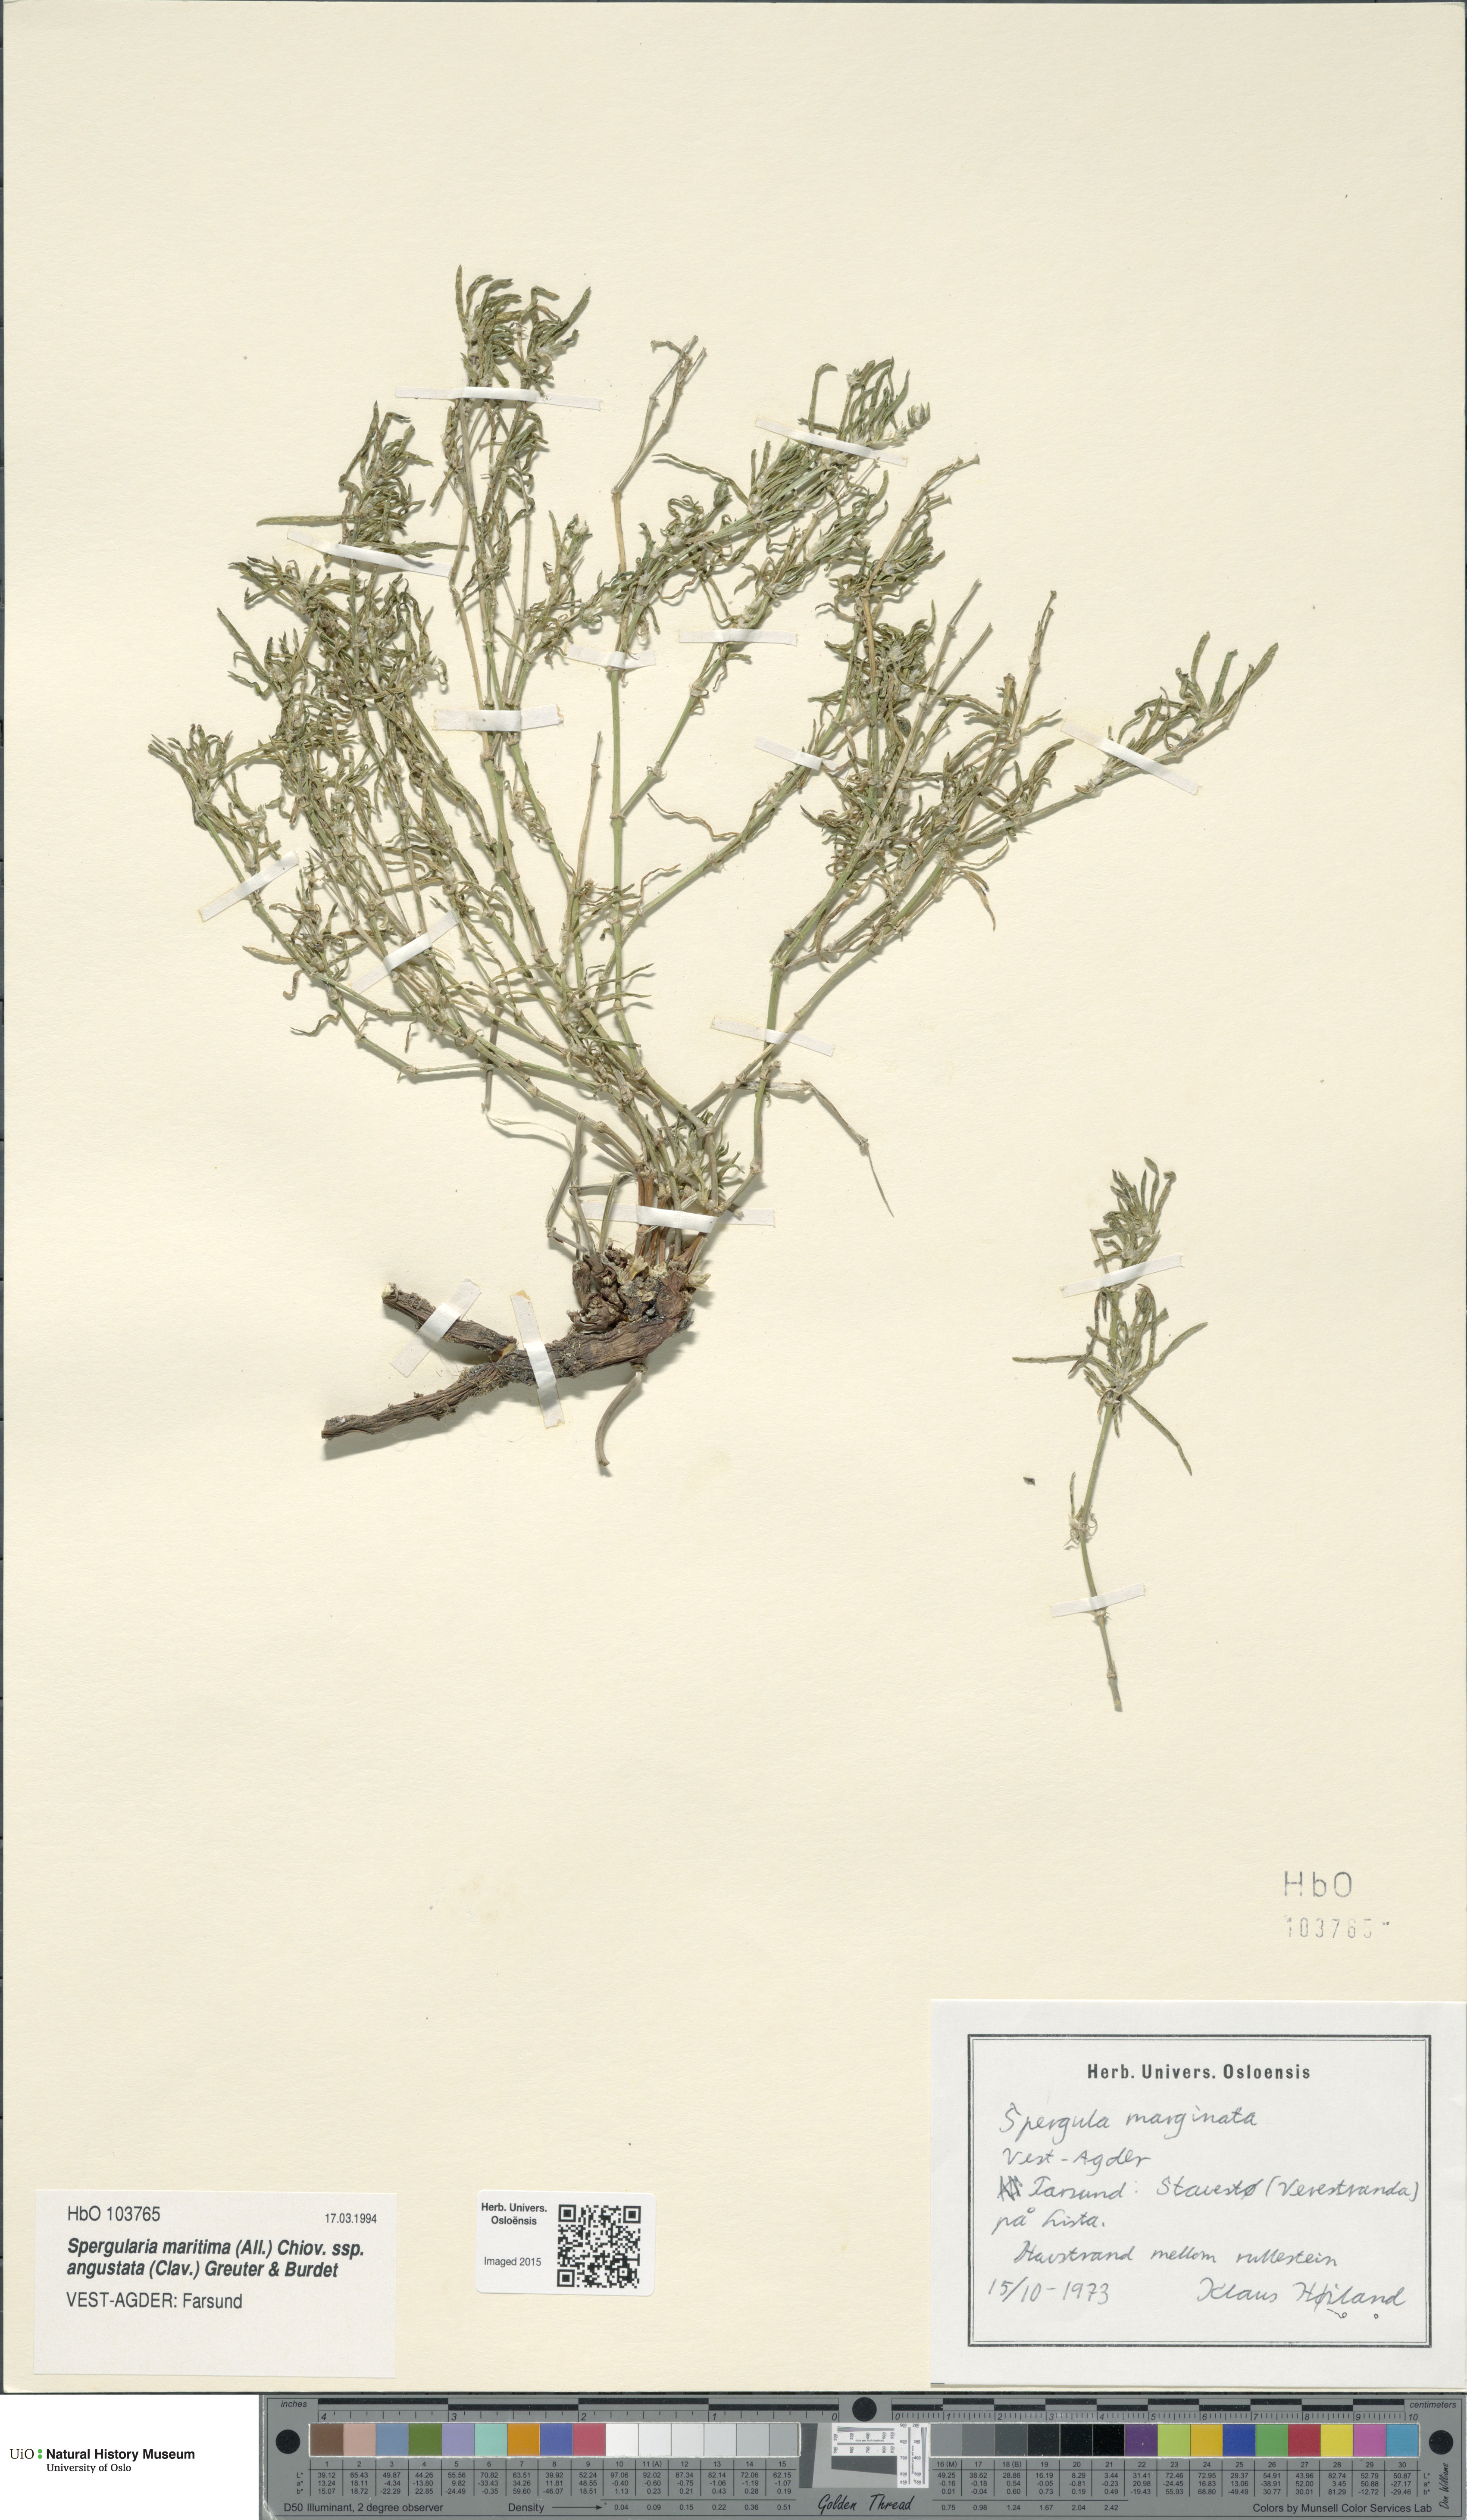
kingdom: Plantae
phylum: Tracheophyta
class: Magnoliopsida
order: Caryophyllales
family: Caryophyllaceae
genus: Spergularia
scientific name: Spergularia media
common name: Greater sea-spurrey
